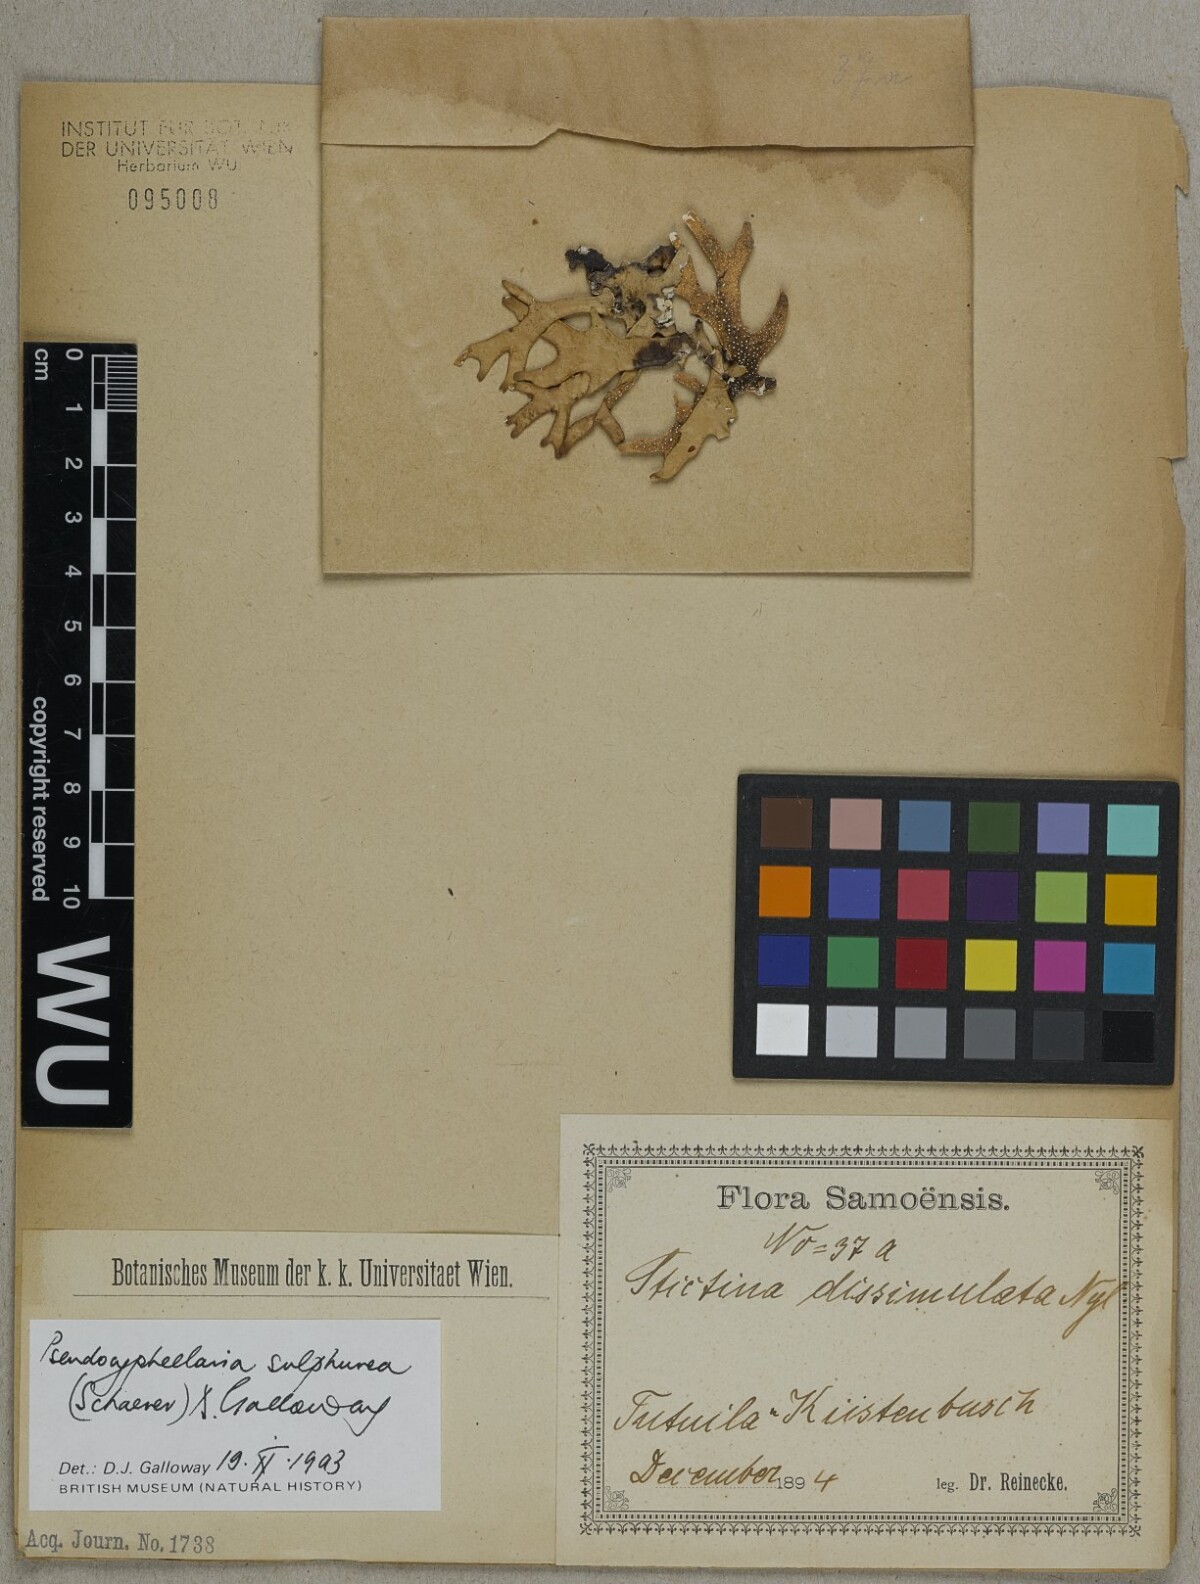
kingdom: Fungi
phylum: Ascomycota
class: Lecanoromycetes
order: Peltigerales
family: Lobariaceae
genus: Pseudocyphellaria
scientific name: Pseudocyphellaria sulphurea
